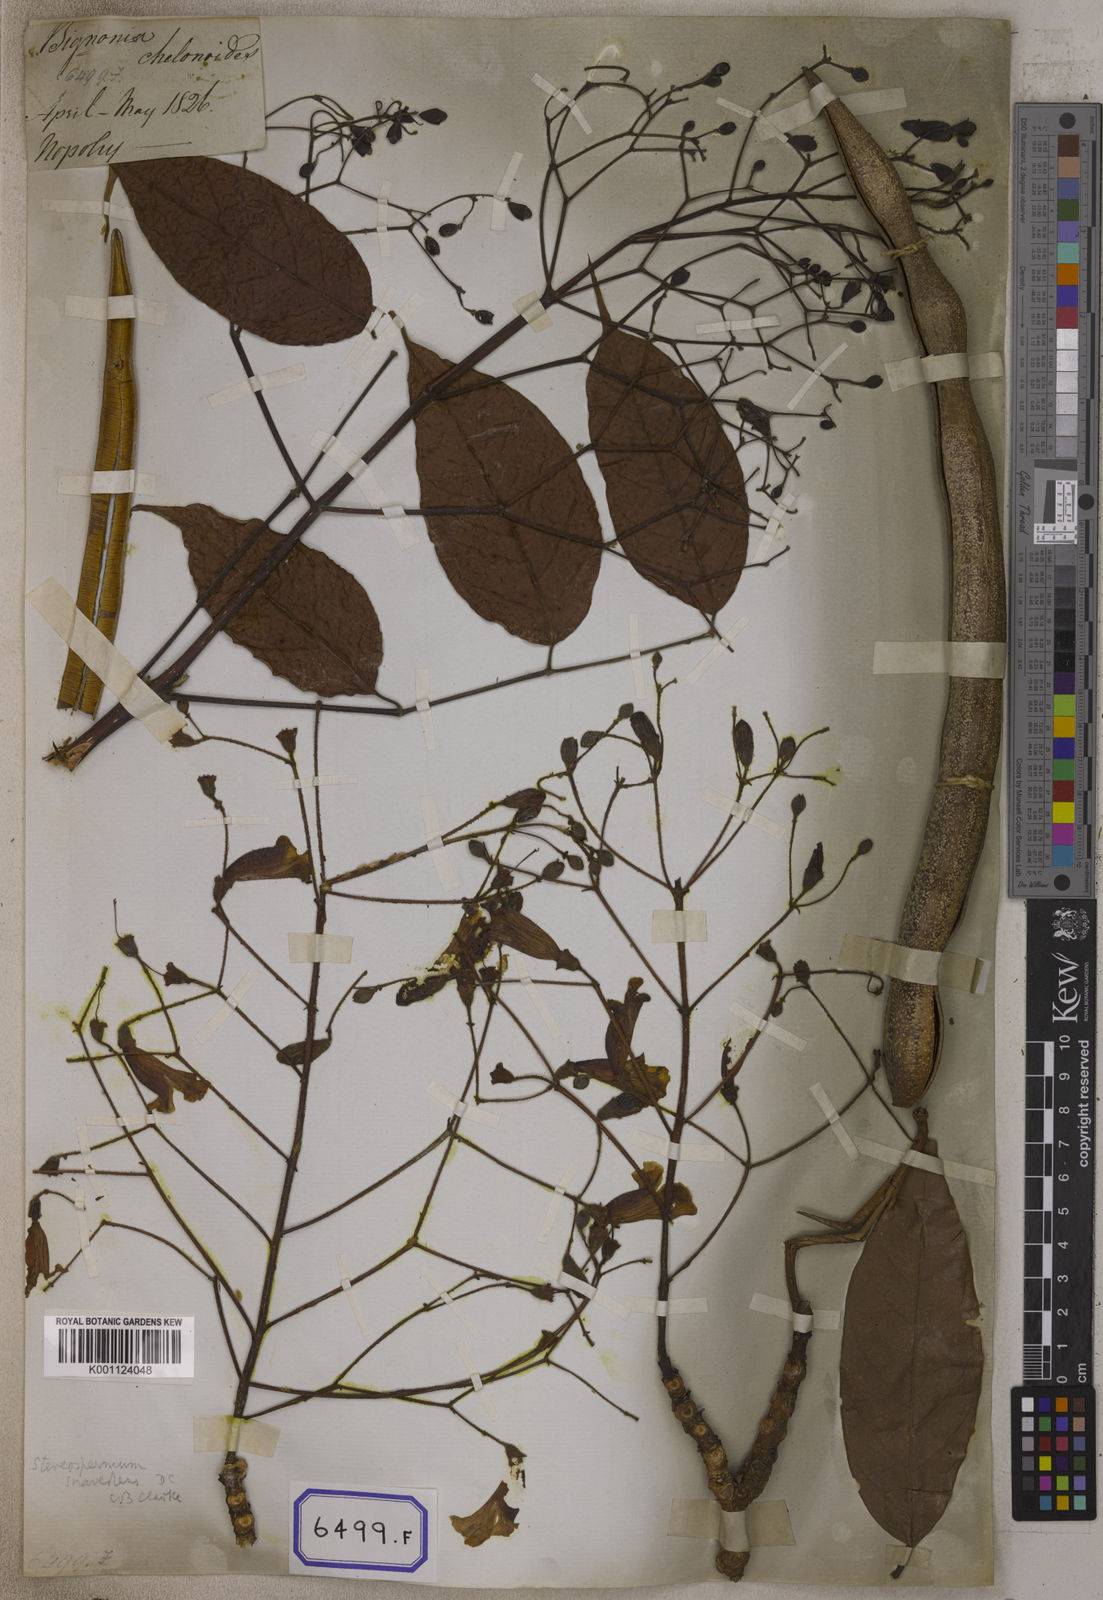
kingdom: Plantae
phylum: Tracheophyta
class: Magnoliopsida
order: Lamiales
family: Bignoniaceae
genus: Stereospermum
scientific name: Stereospermum chelonoides
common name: Fragrant padritree
